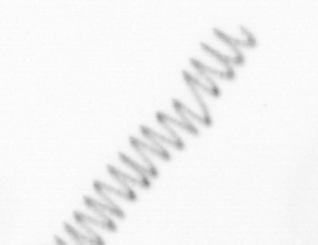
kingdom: Chromista
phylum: Ochrophyta
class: Bacillariophyceae
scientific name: Bacillariophyceae
